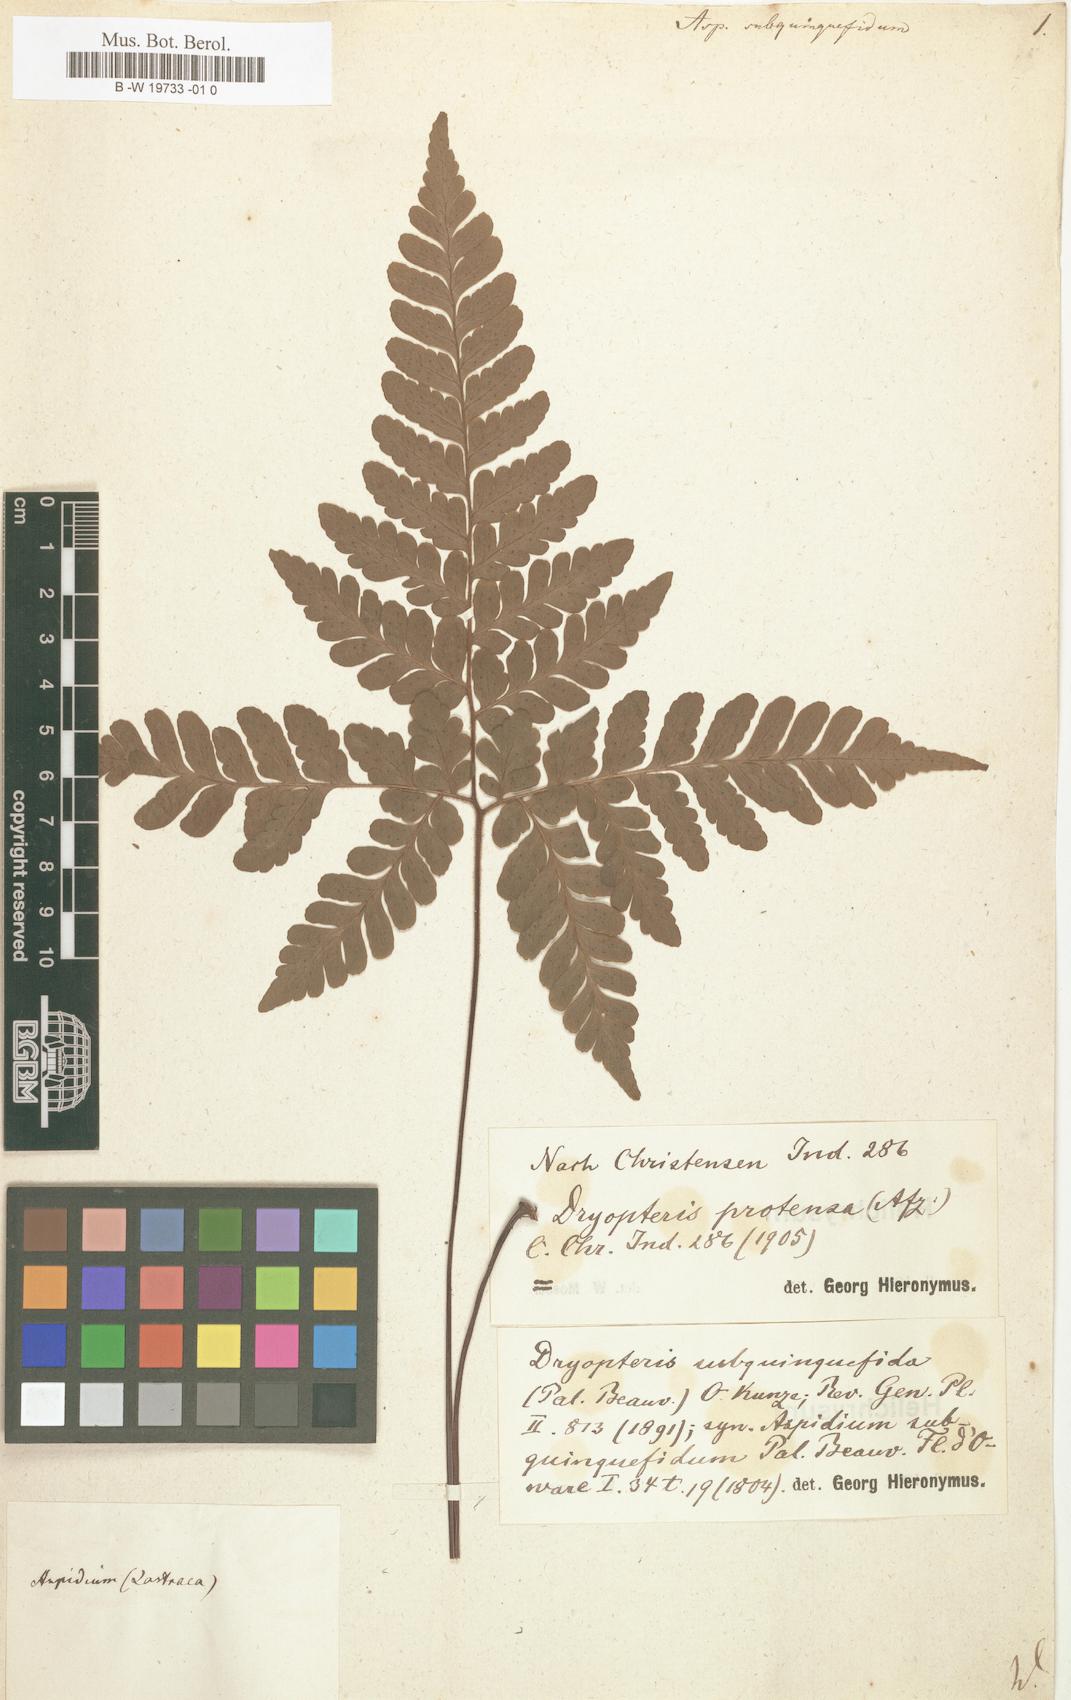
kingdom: Plantae
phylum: Tracheophyta
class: Polypodiopsida
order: Polypodiales
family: Tectariaceae
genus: Triplophyllum
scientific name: Triplophyllum subquinquefidum
